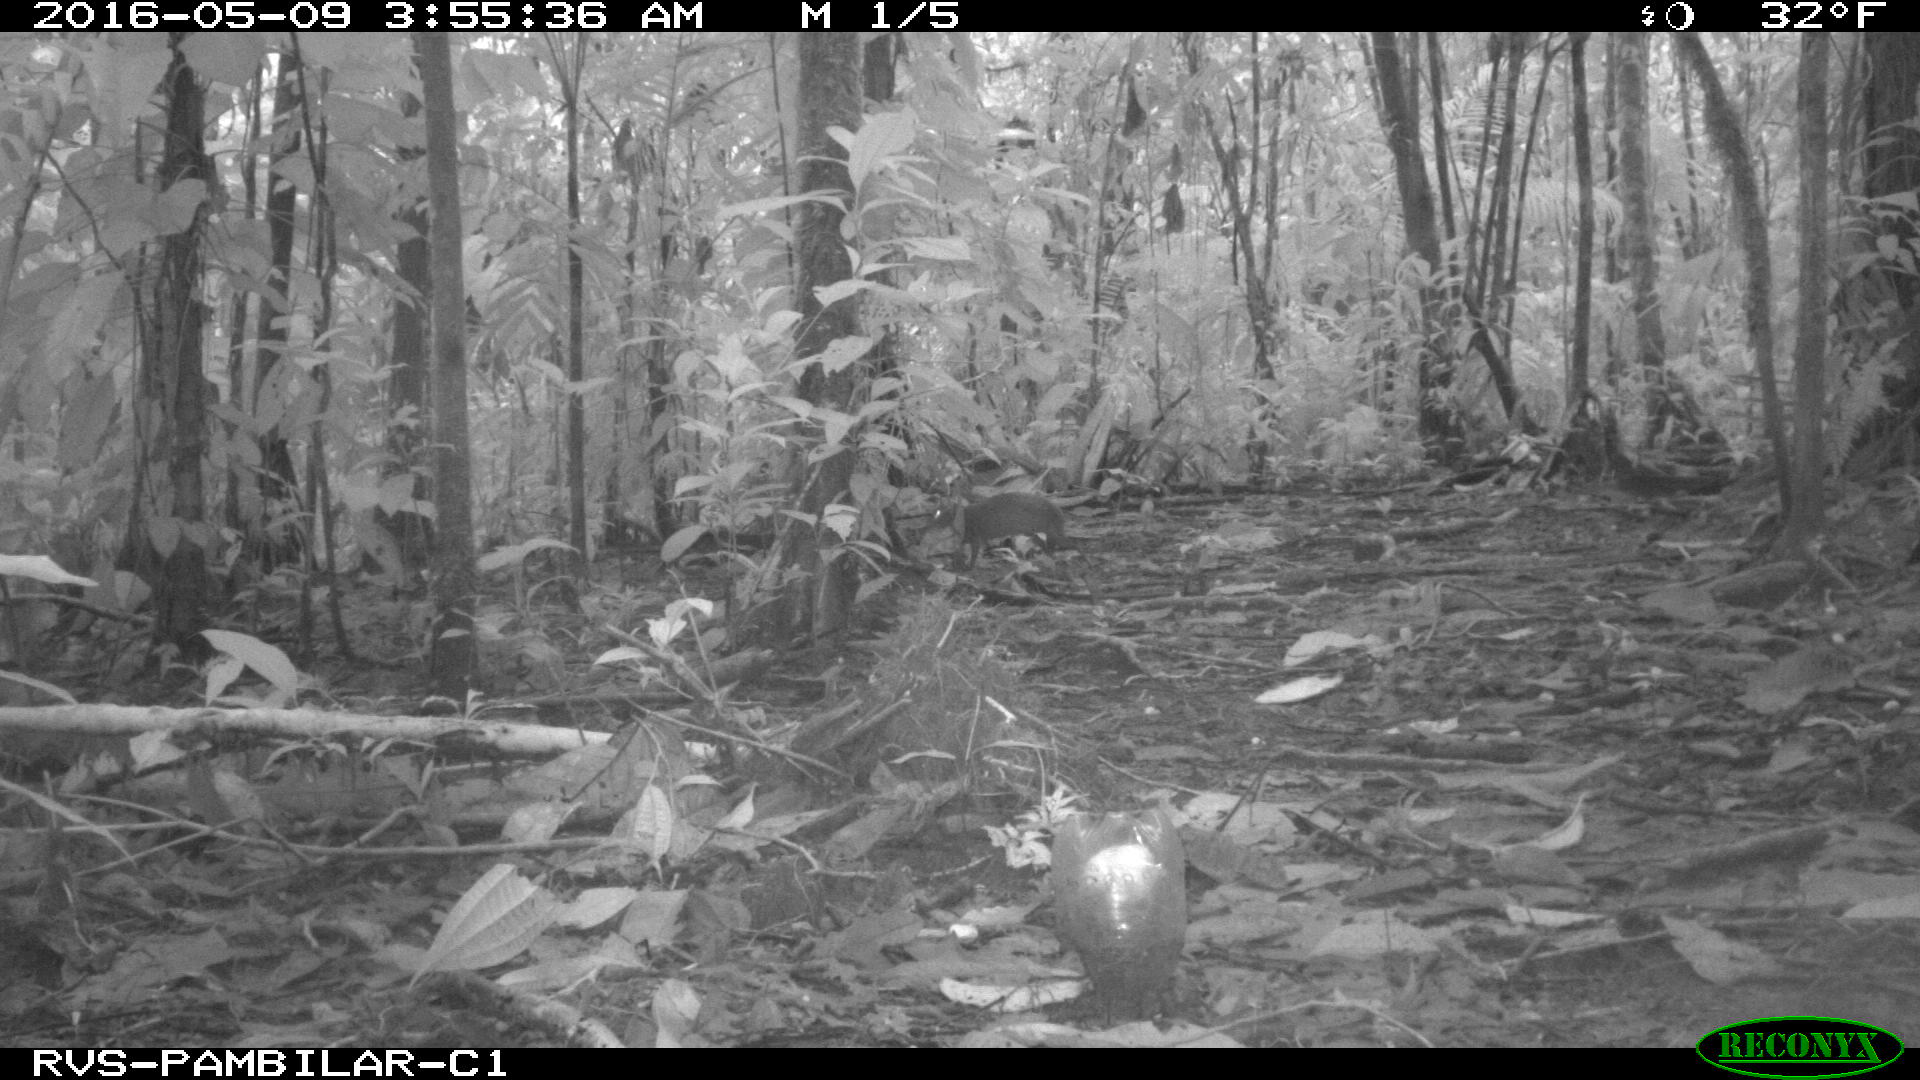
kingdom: Animalia
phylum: Chordata
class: Mammalia
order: Rodentia
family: Dasyproctidae
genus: Dasyprocta
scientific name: Dasyprocta punctata
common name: Central american agouti
